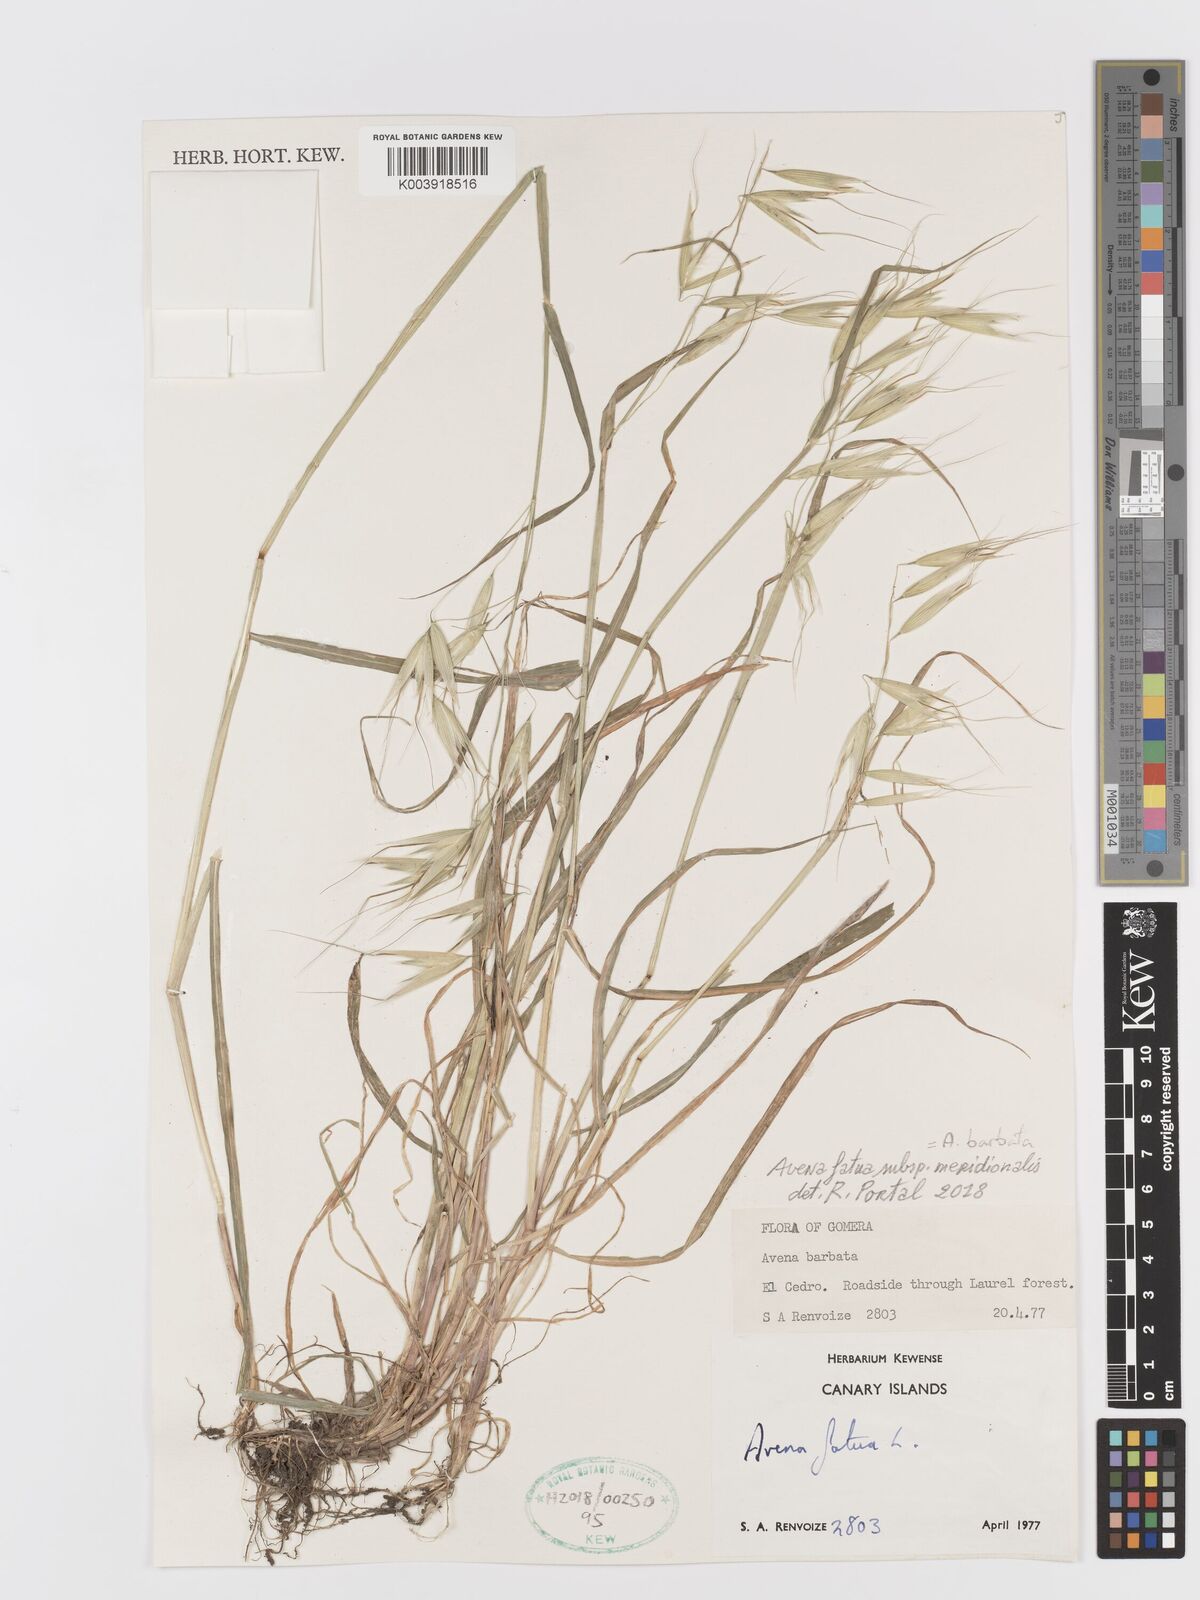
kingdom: Plantae
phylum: Tracheophyta
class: Liliopsida
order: Poales
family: Poaceae
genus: Avena
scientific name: Avena
